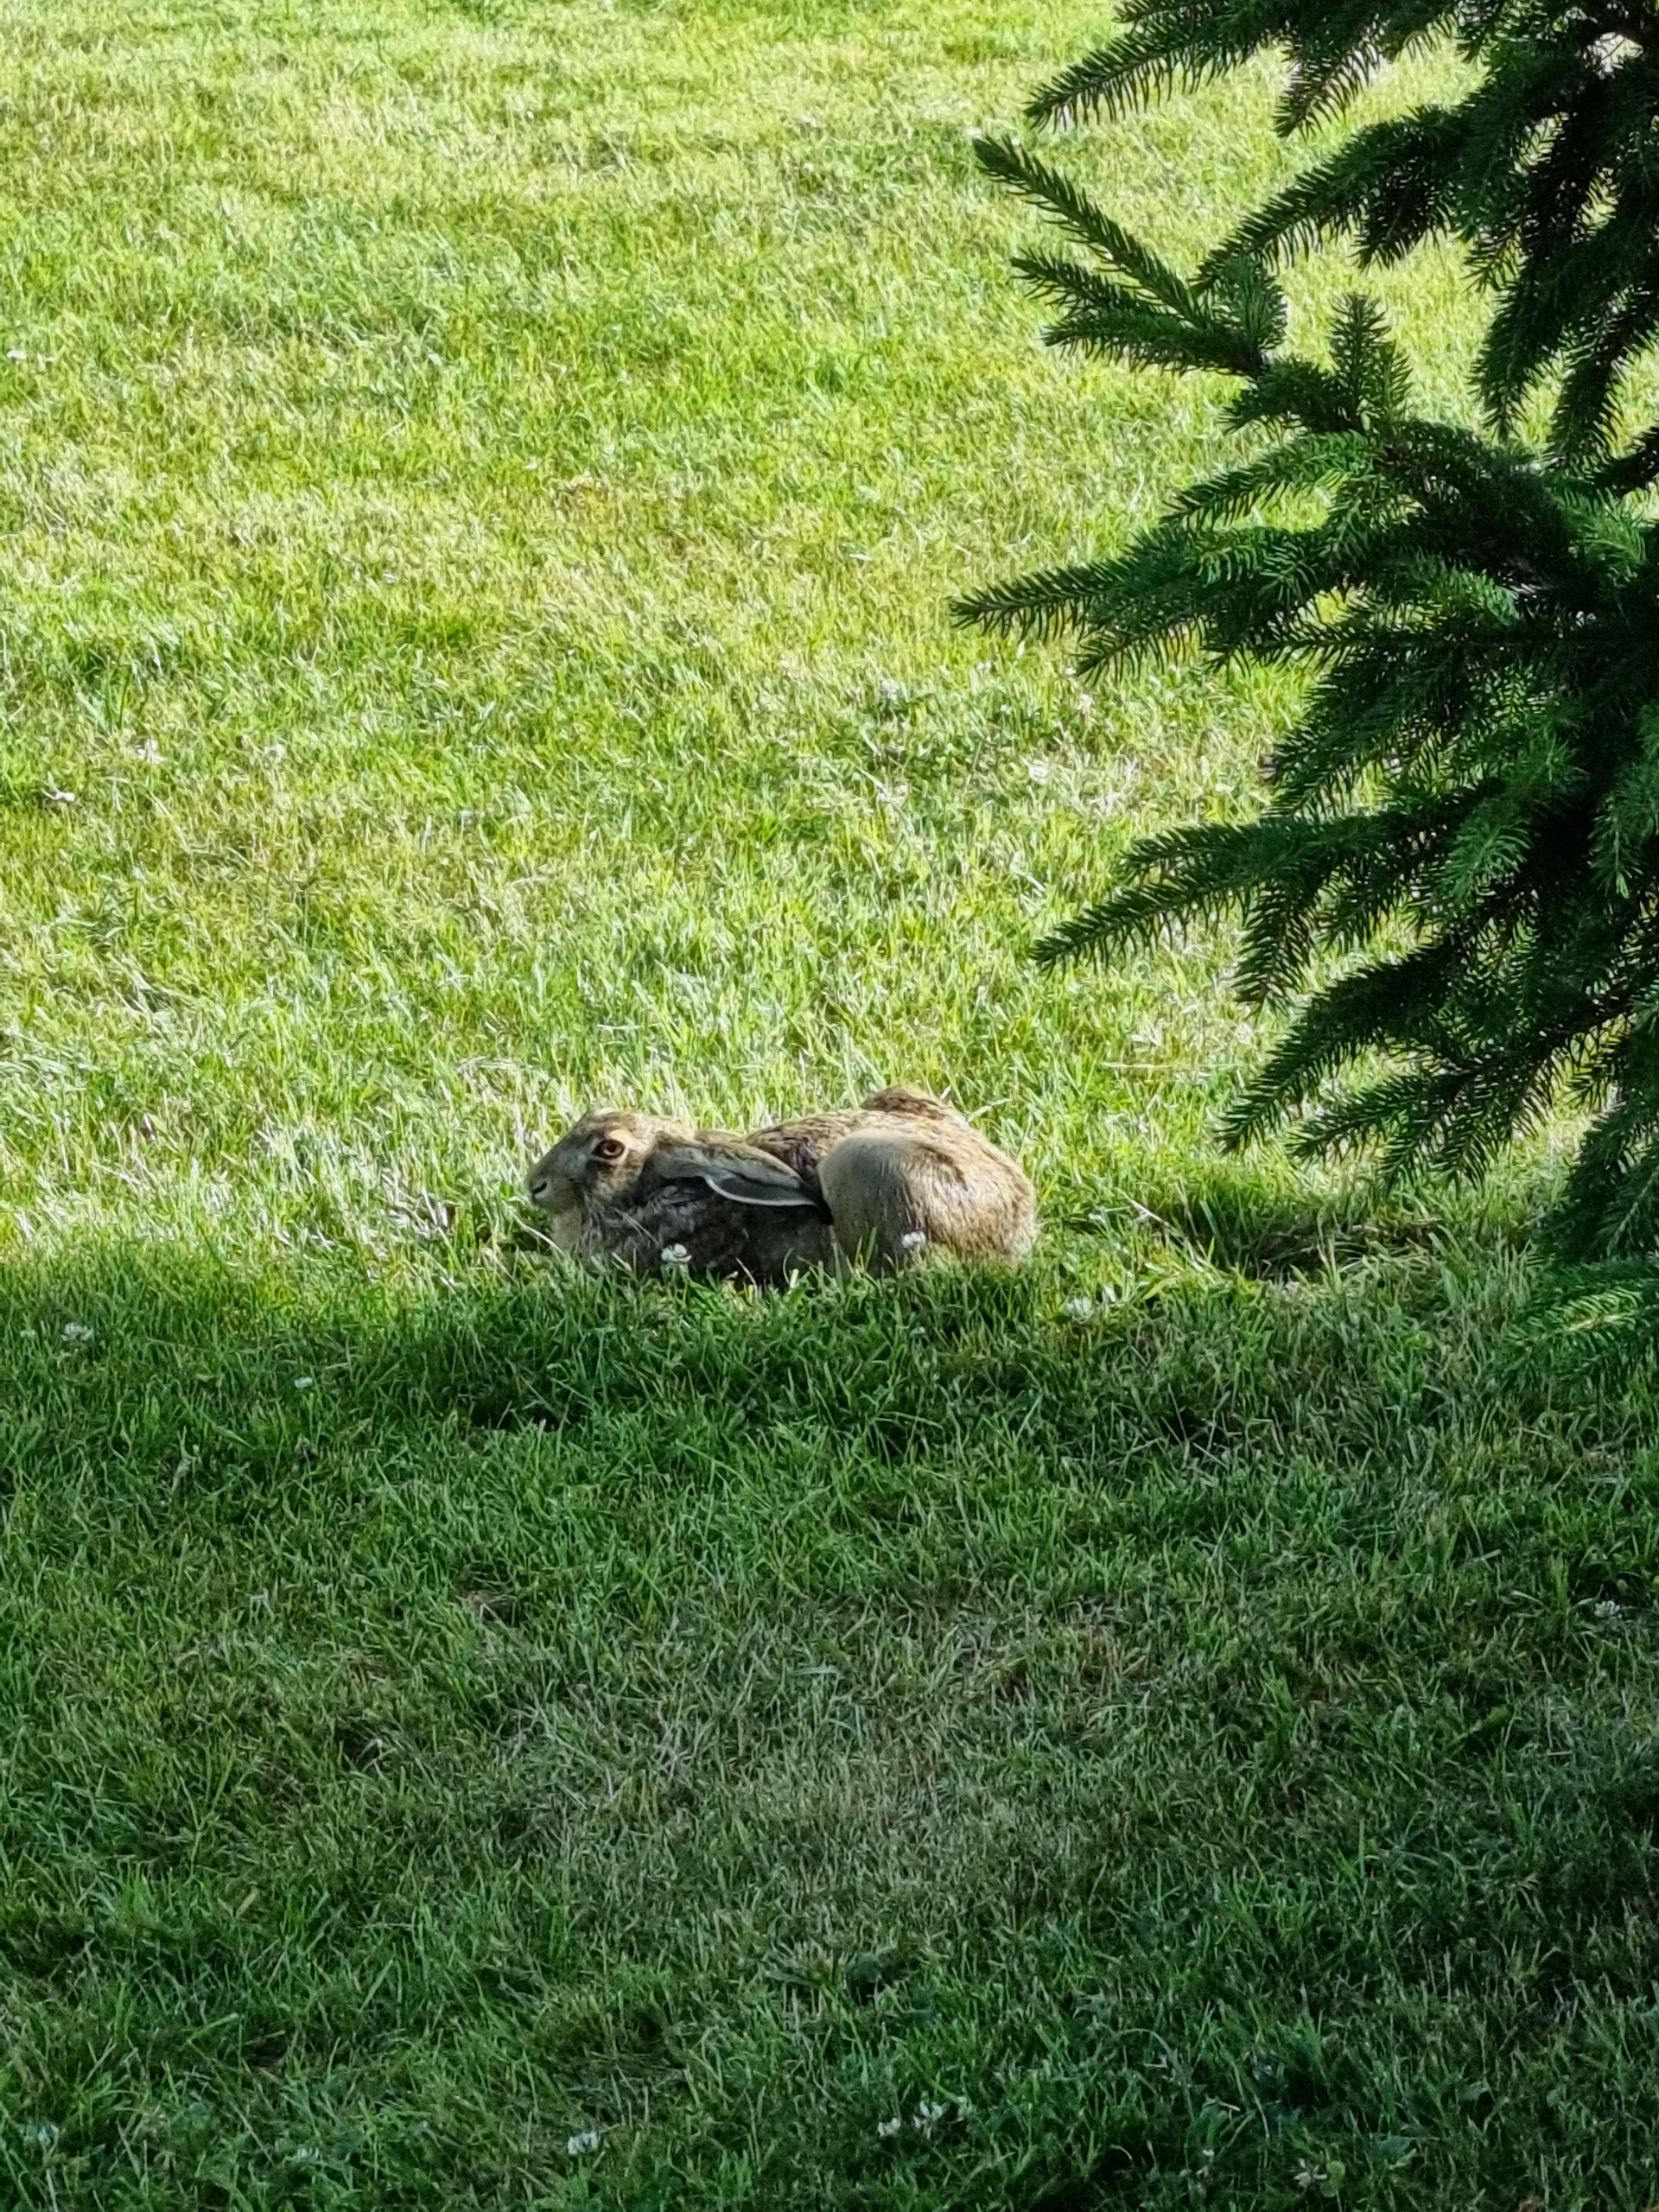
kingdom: Animalia
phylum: Chordata
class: Mammalia
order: Lagomorpha
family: Leporidae
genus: Lepus
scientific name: Lepus europaeus
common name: Hare
